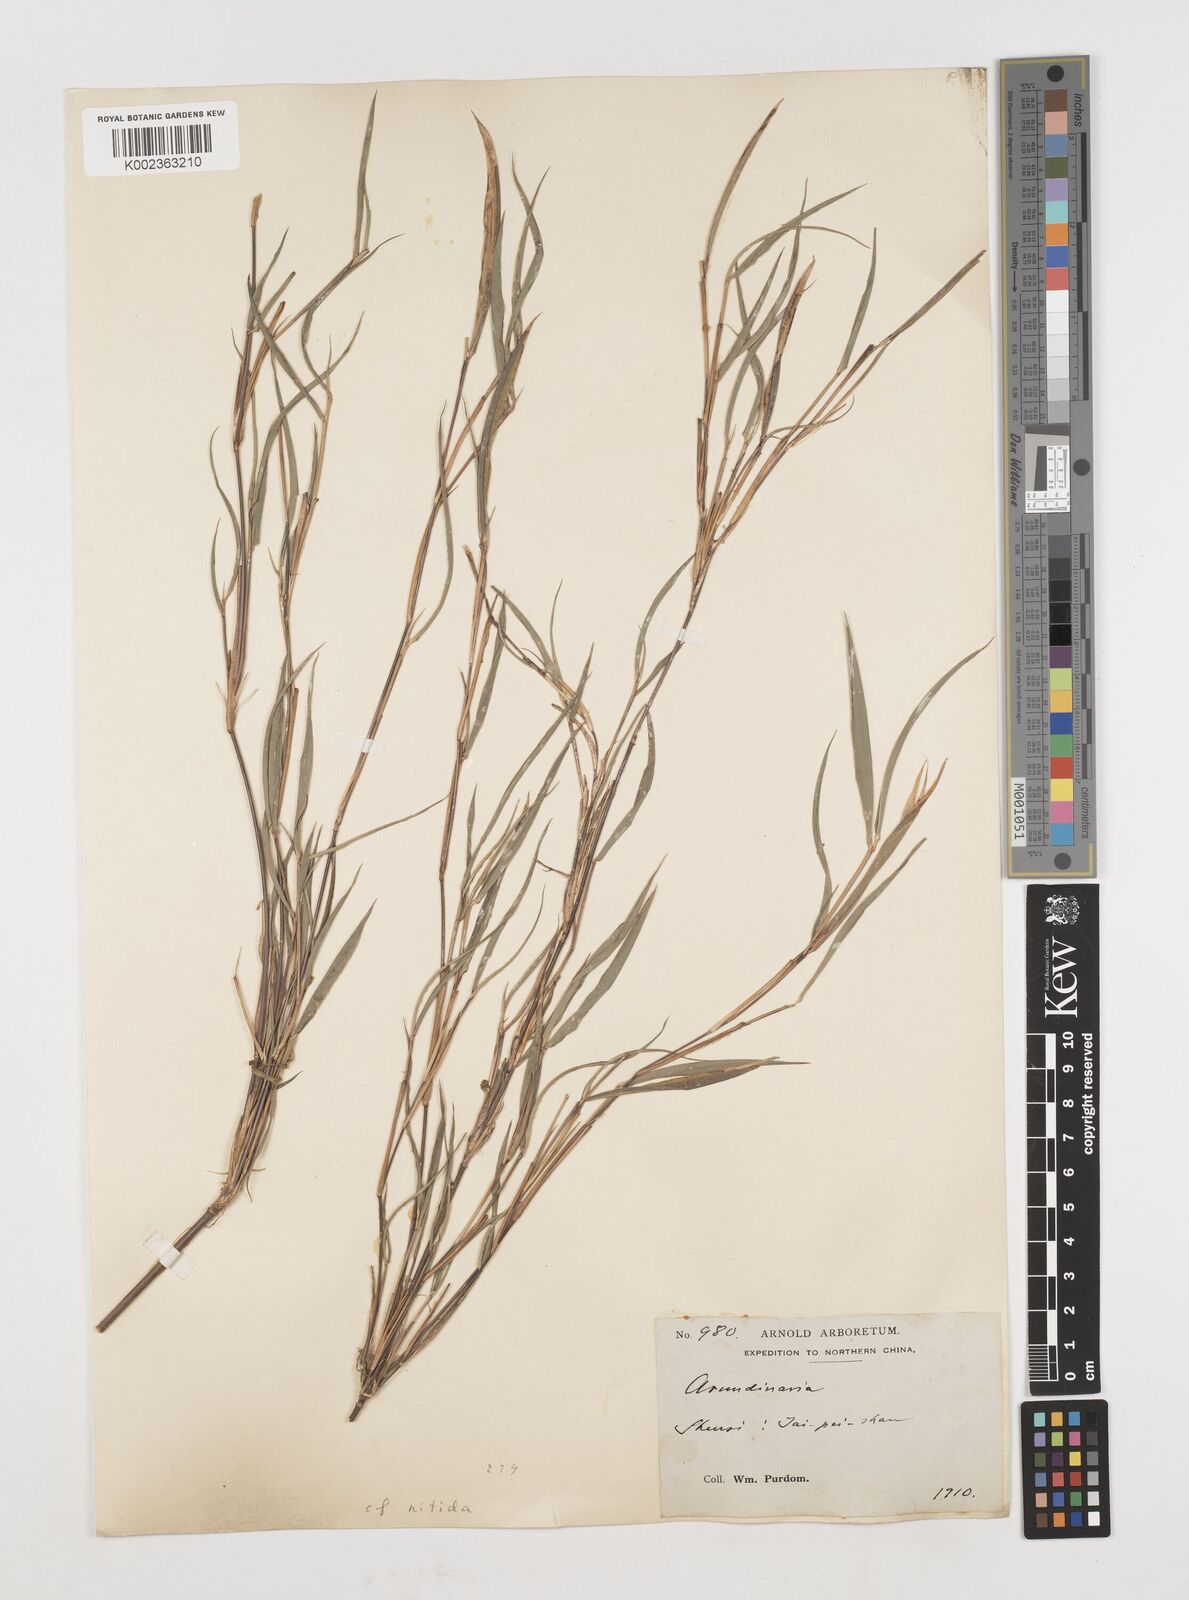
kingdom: Plantae
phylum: Tracheophyta
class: Liliopsida
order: Poales
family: Poaceae
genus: Fargesia
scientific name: Fargesia nitida ex
